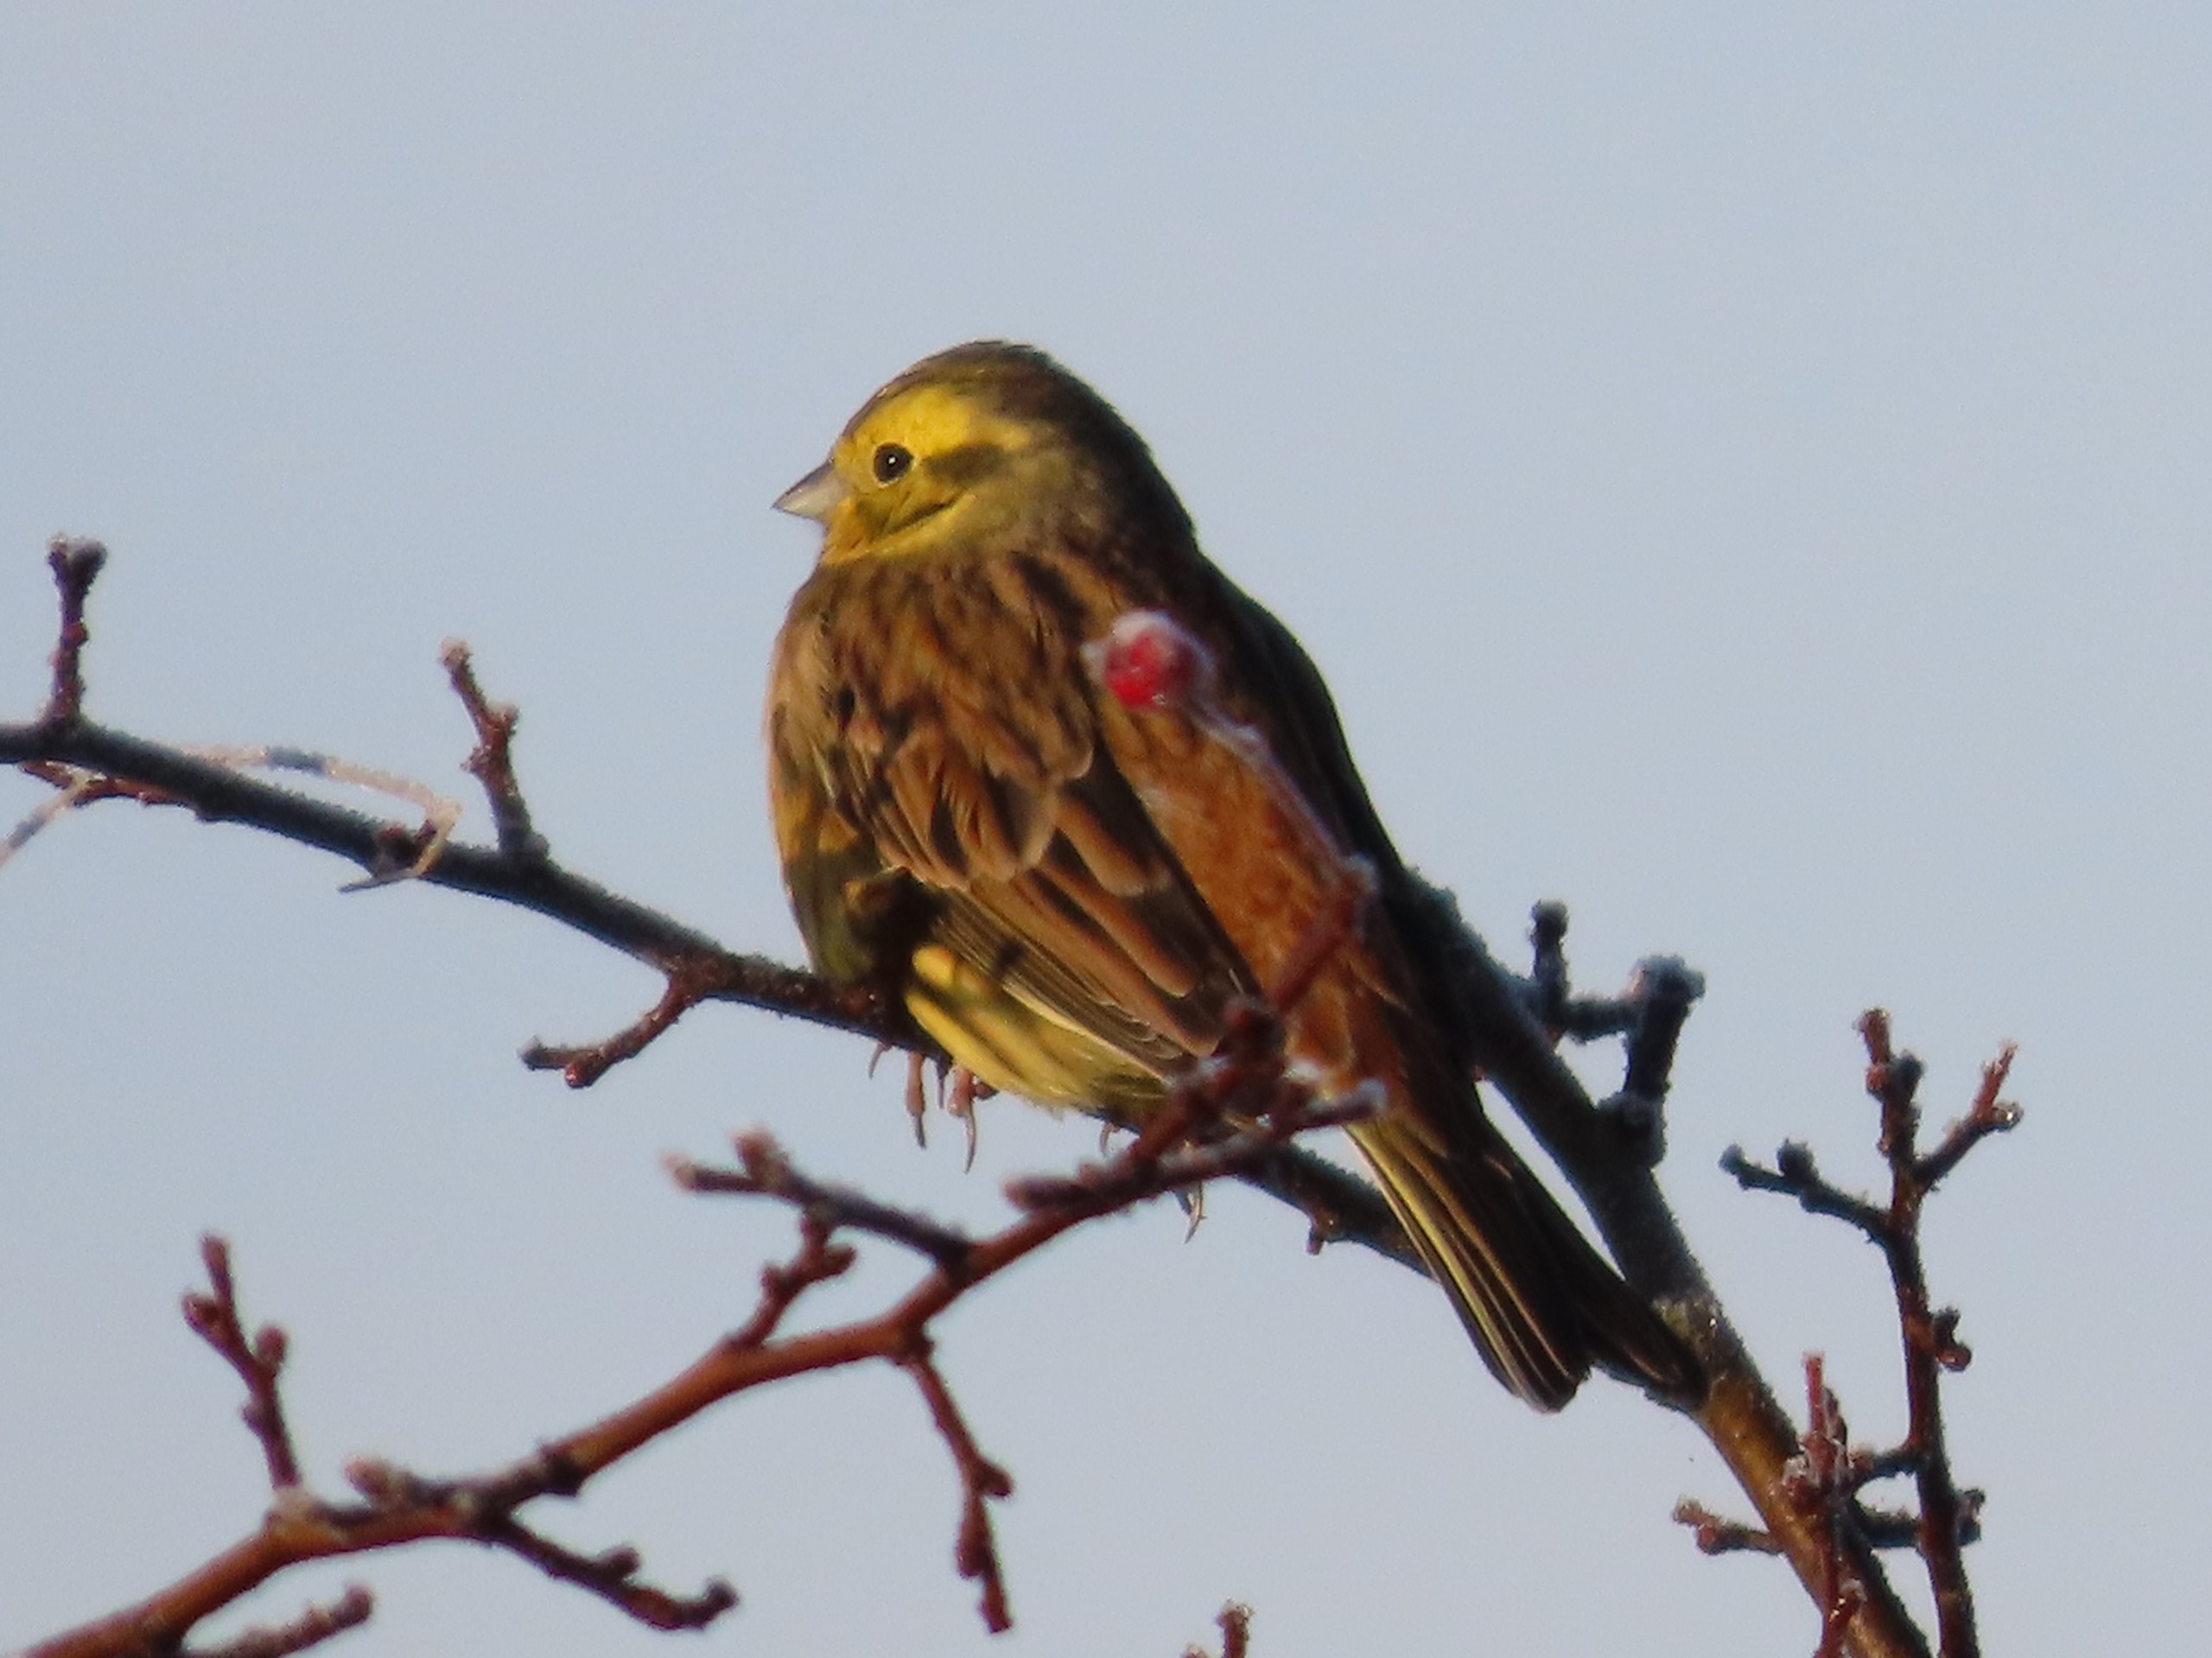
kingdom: Animalia
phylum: Chordata
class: Aves
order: Passeriformes
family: Emberizidae
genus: Emberiza
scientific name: Emberiza citrinella
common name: Gulspurv
